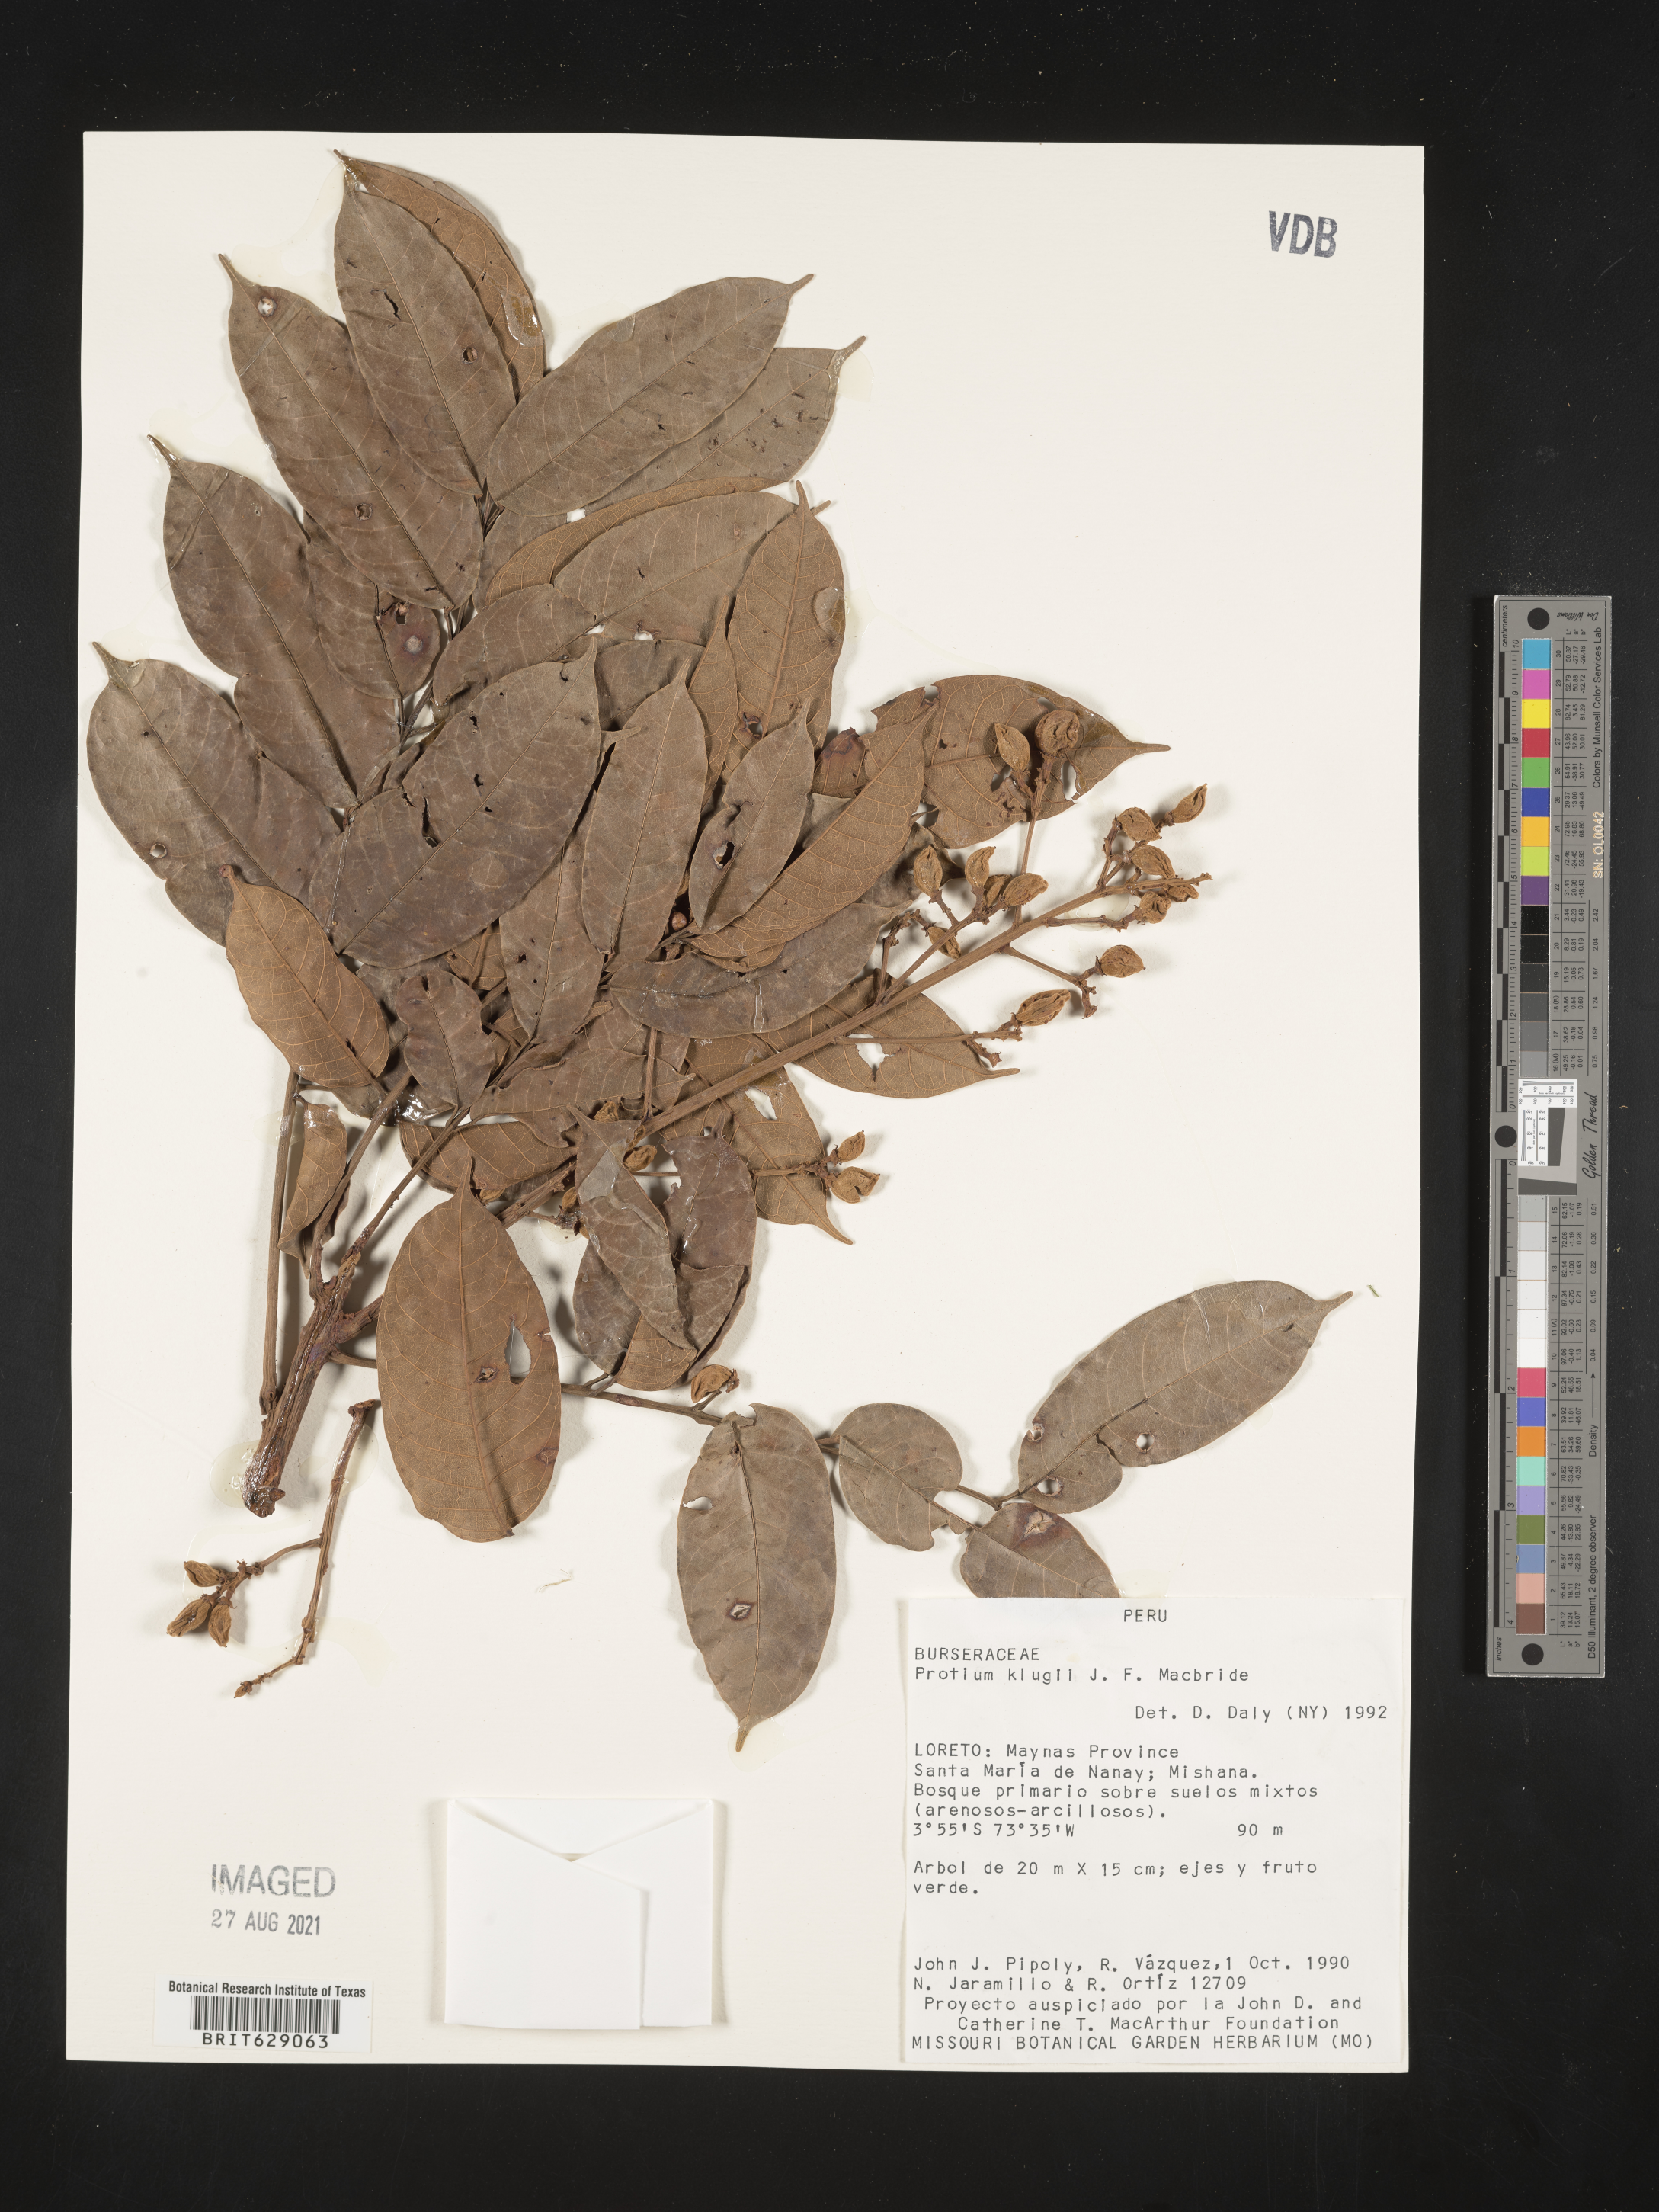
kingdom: Plantae
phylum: Tracheophyta
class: Magnoliopsida
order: Sapindales
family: Burseraceae
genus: Protium
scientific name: Protium klugii
